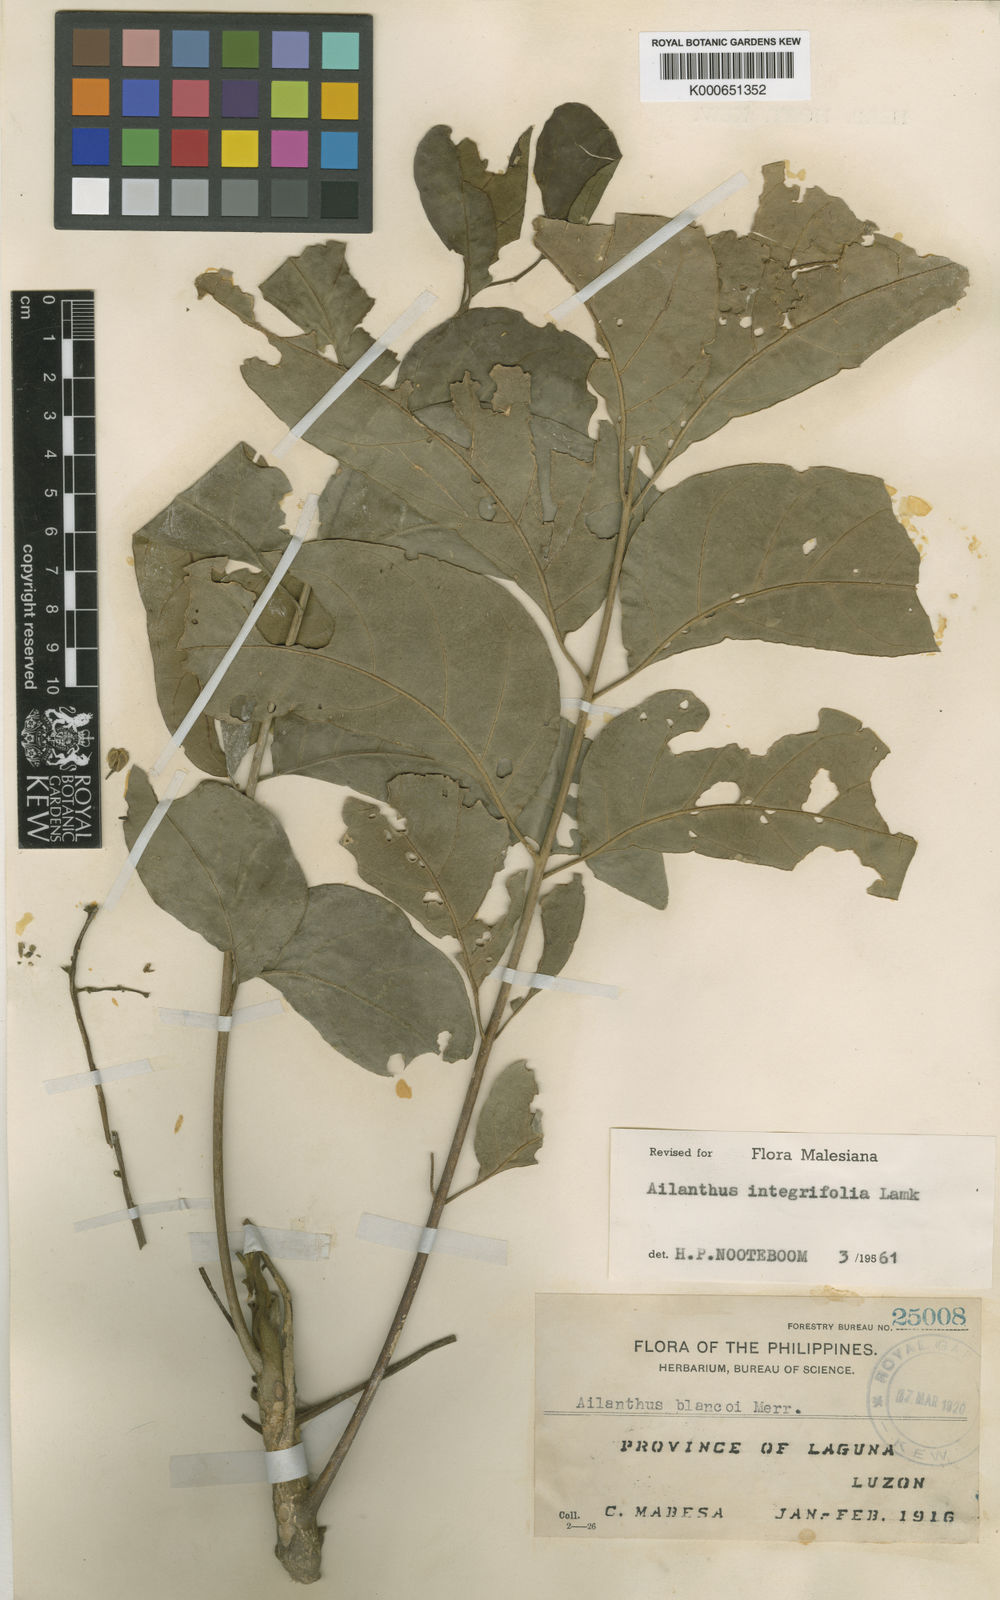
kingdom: Plantae
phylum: Tracheophyta
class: Magnoliopsida
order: Sapindales
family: Simaroubaceae
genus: Ailanthus
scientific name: Ailanthus integrifolia
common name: White siris
